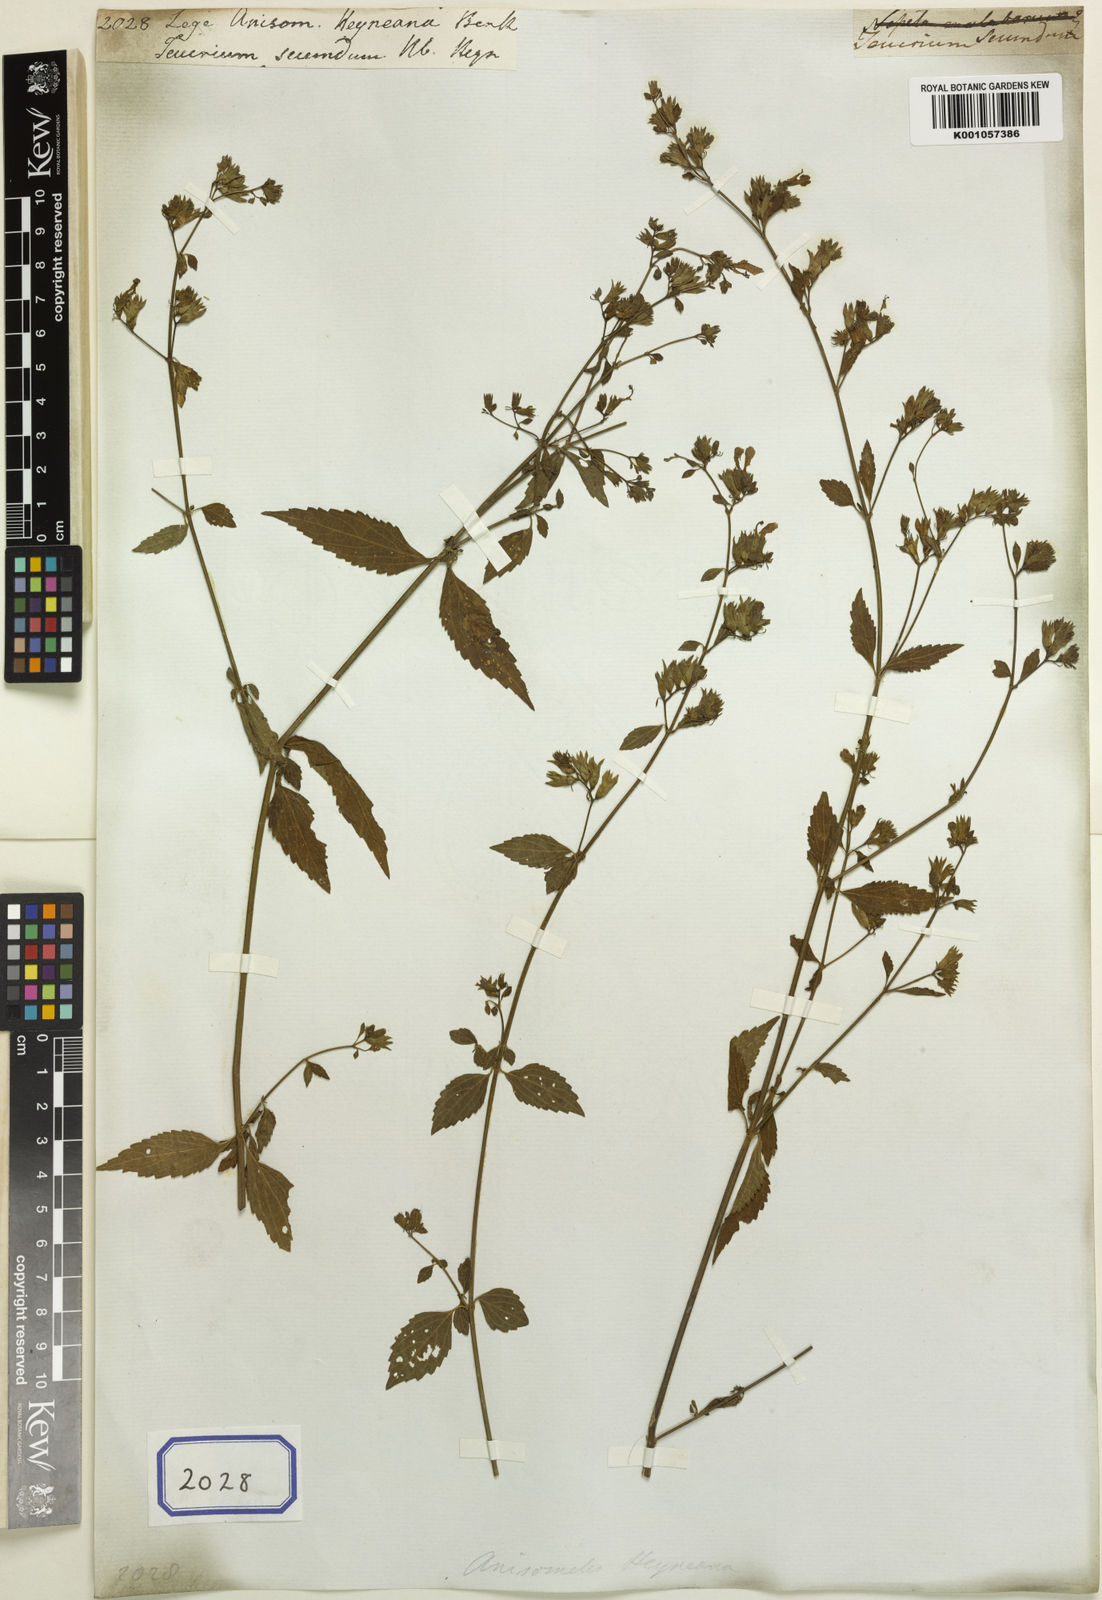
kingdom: Plantae
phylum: Tracheophyta
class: Magnoliopsida
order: Lamiales
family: Lamiaceae
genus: Teucrium
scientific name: Teucrium
